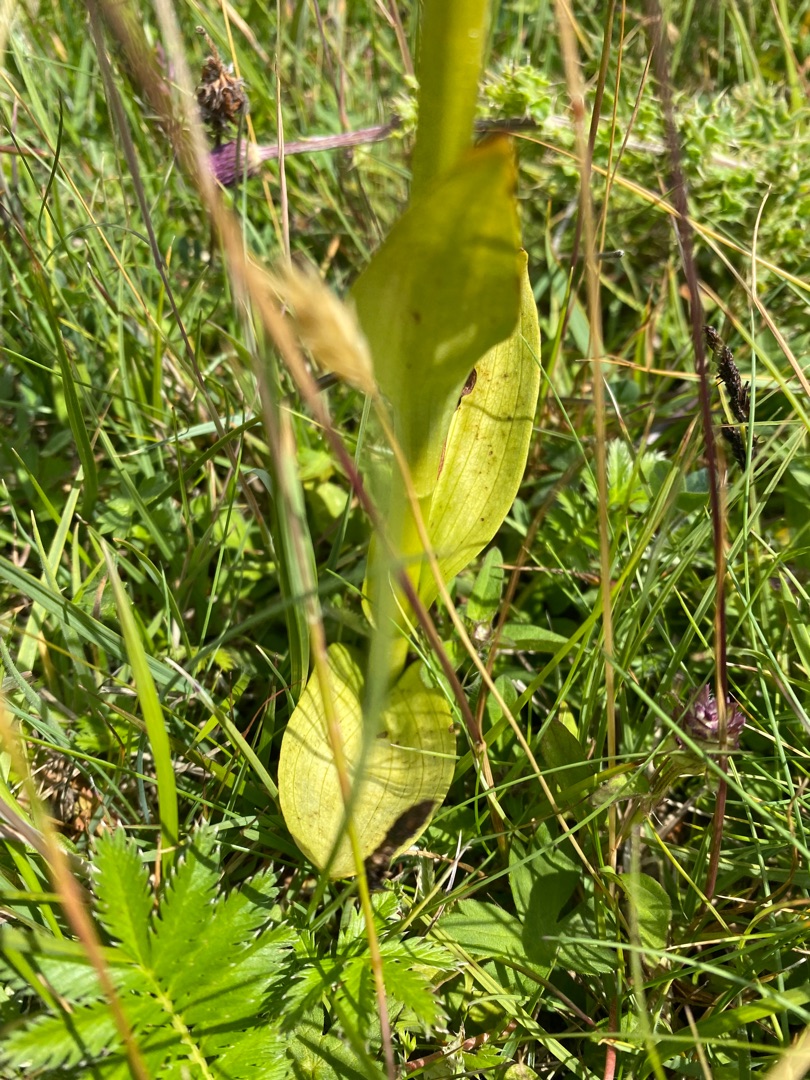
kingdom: Plantae
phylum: Tracheophyta
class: Liliopsida
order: Asparagales
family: Orchidaceae
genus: Dactylorhiza
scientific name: Dactylorhiza majalis
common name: Maj-gøgeurt
